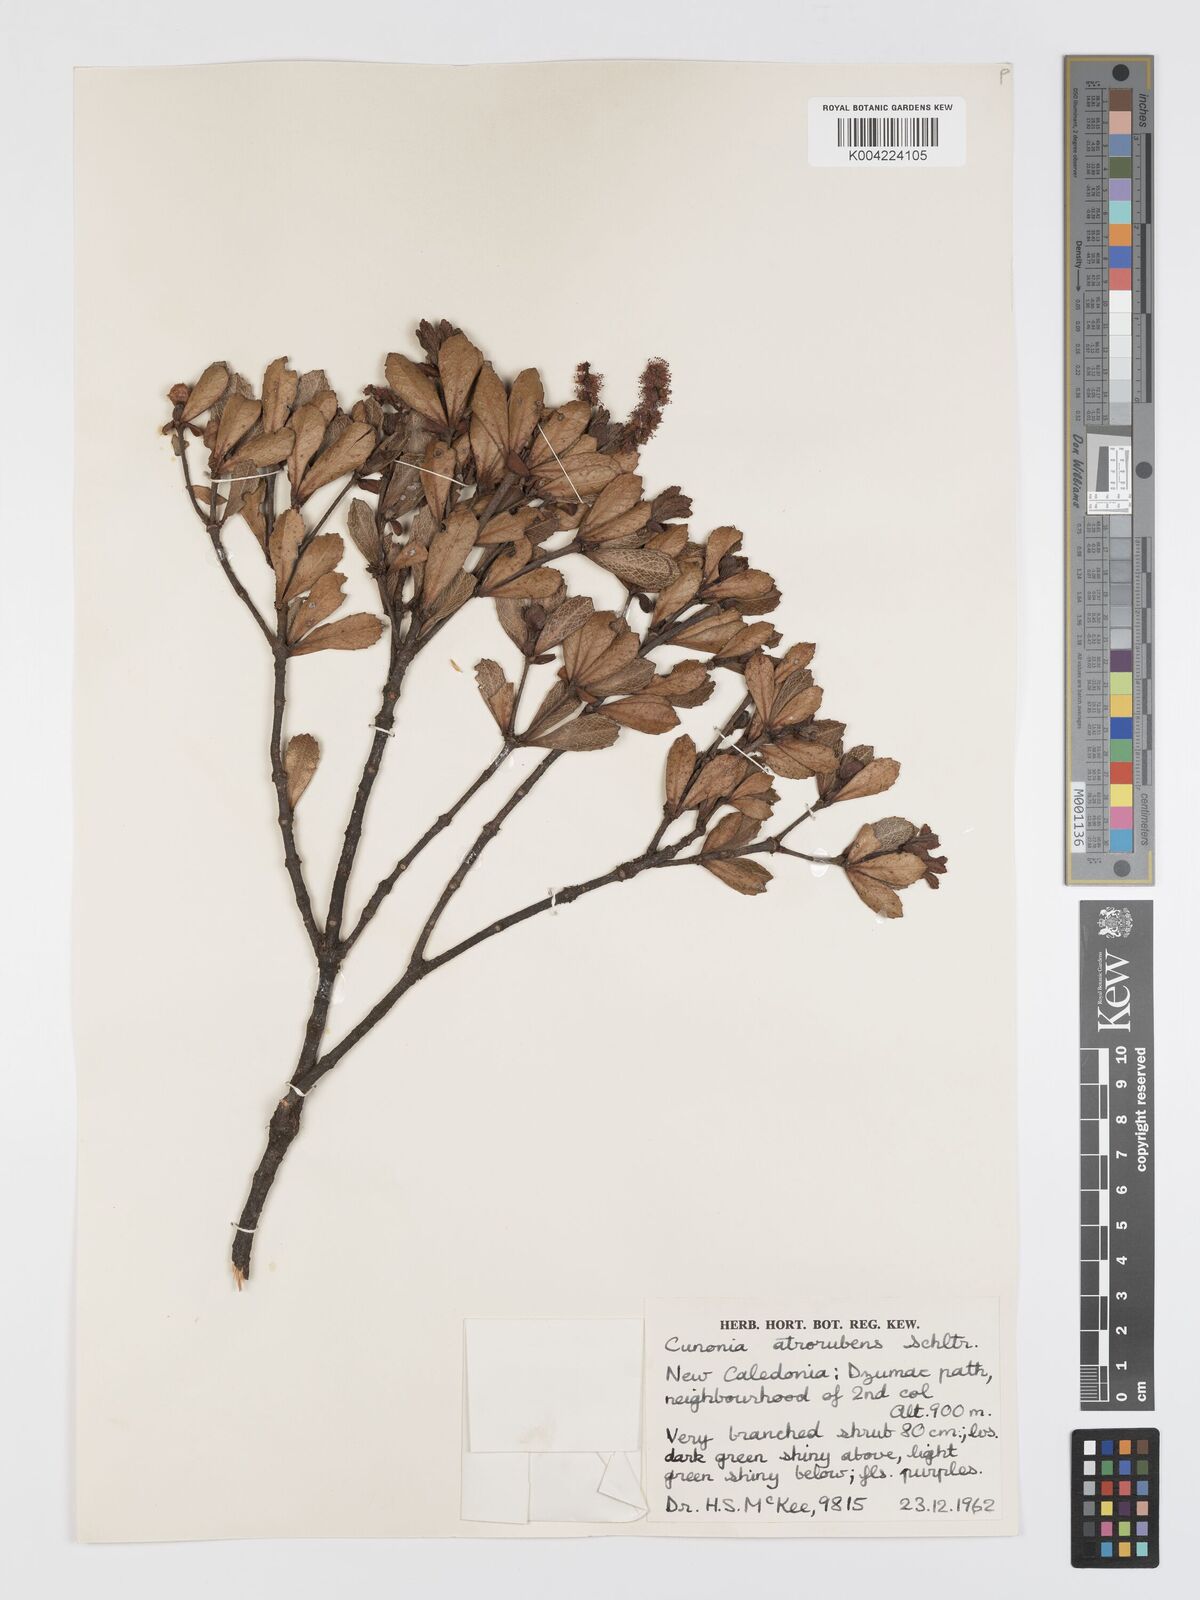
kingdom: Plantae
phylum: Tracheophyta
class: Magnoliopsida
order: Oxalidales
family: Cunoniaceae
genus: Cunonia
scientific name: Cunonia atrorubens
